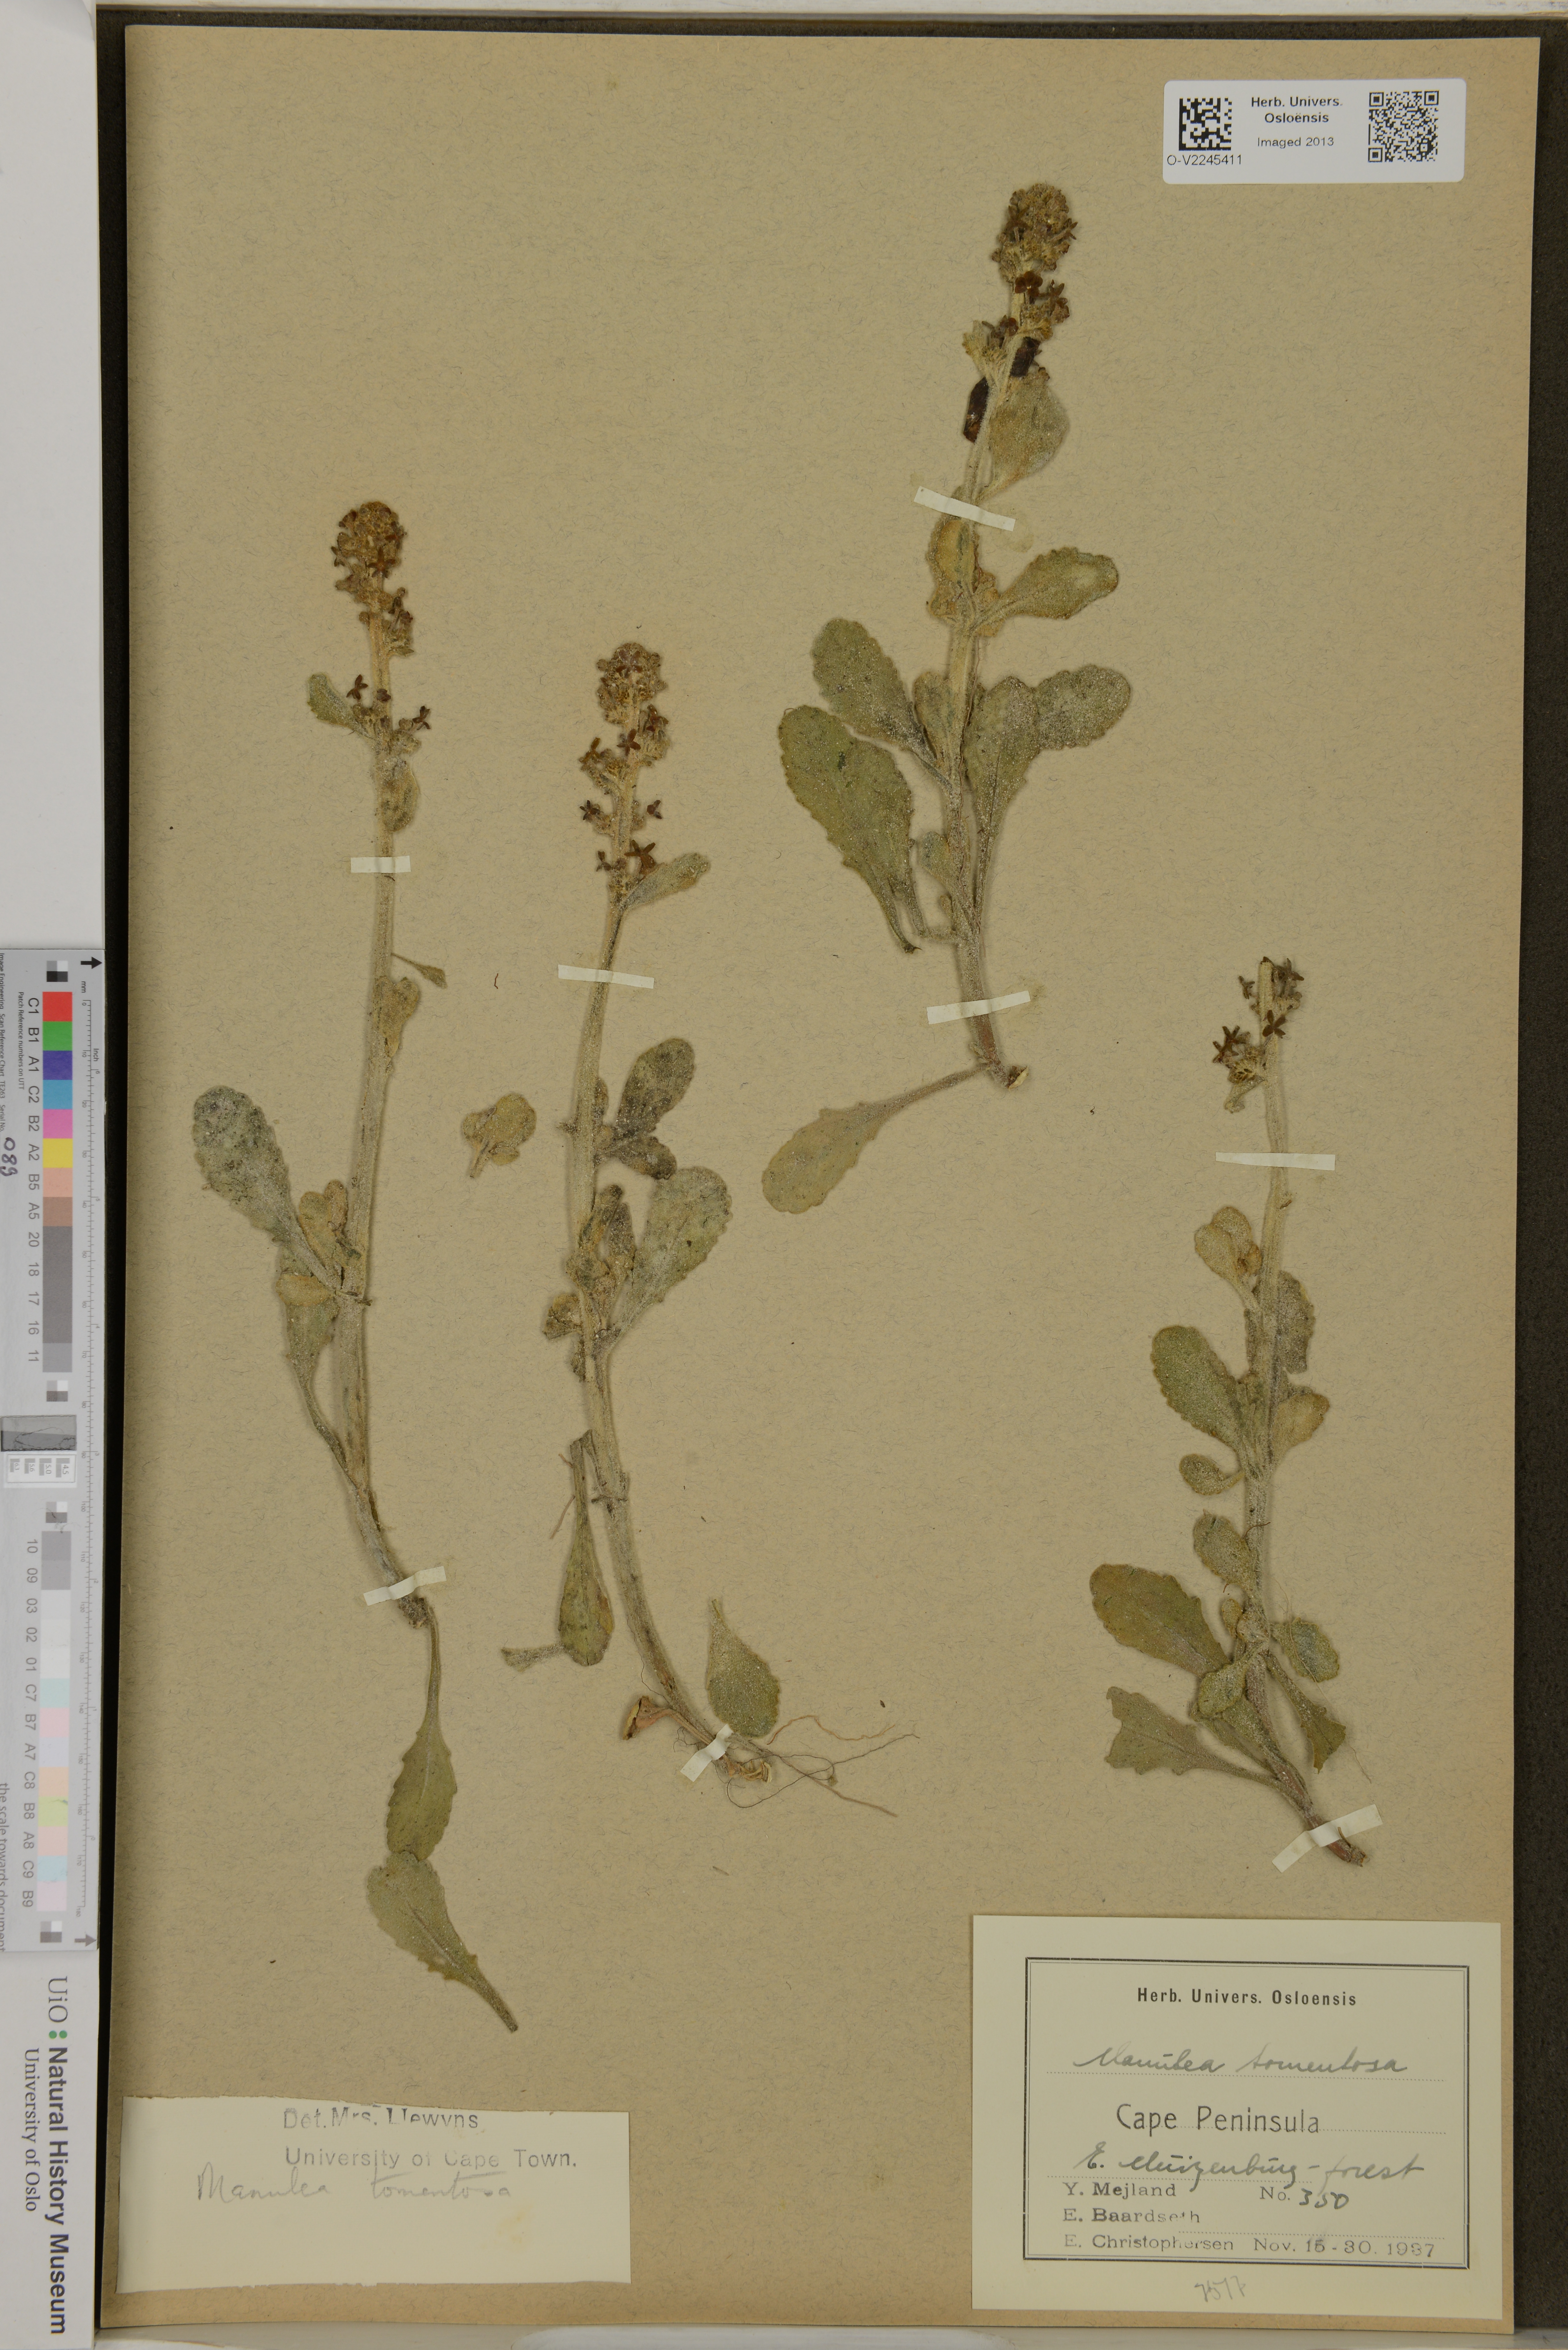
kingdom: Plantae
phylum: Tracheophyta
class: Magnoliopsida
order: Lamiales
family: Scrophulariaceae
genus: Manulea
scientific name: Manulea tomentosa
